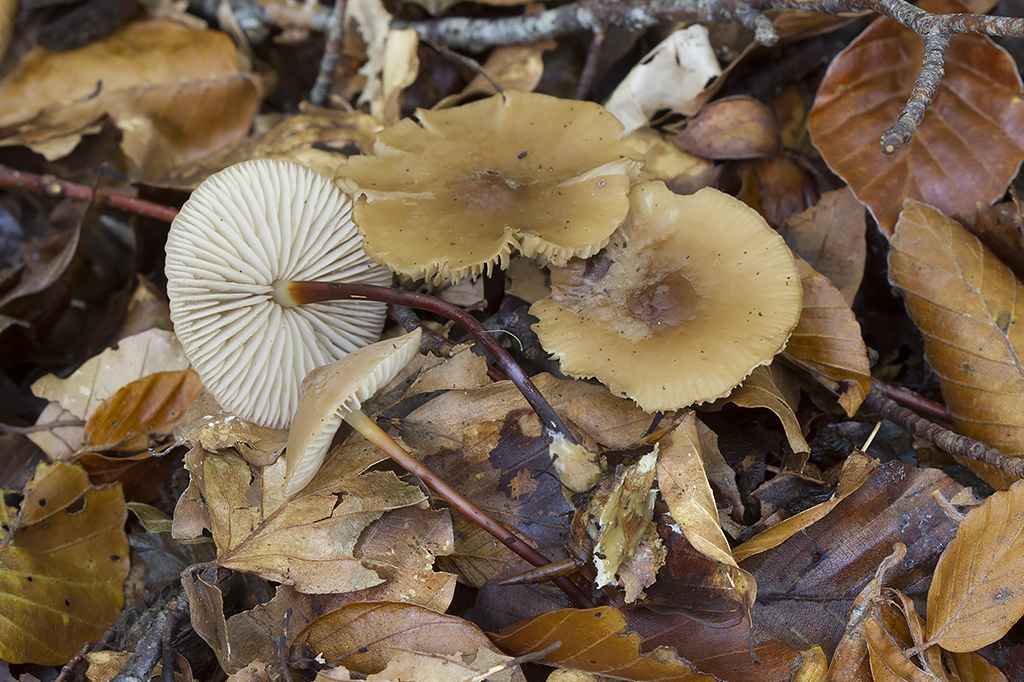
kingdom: Fungi
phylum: Basidiomycota
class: Agaricomycetes
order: Agaricales
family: Marasmiaceae
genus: Marasmius
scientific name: Marasmius cohaerens
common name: hornstokket bruskhat
